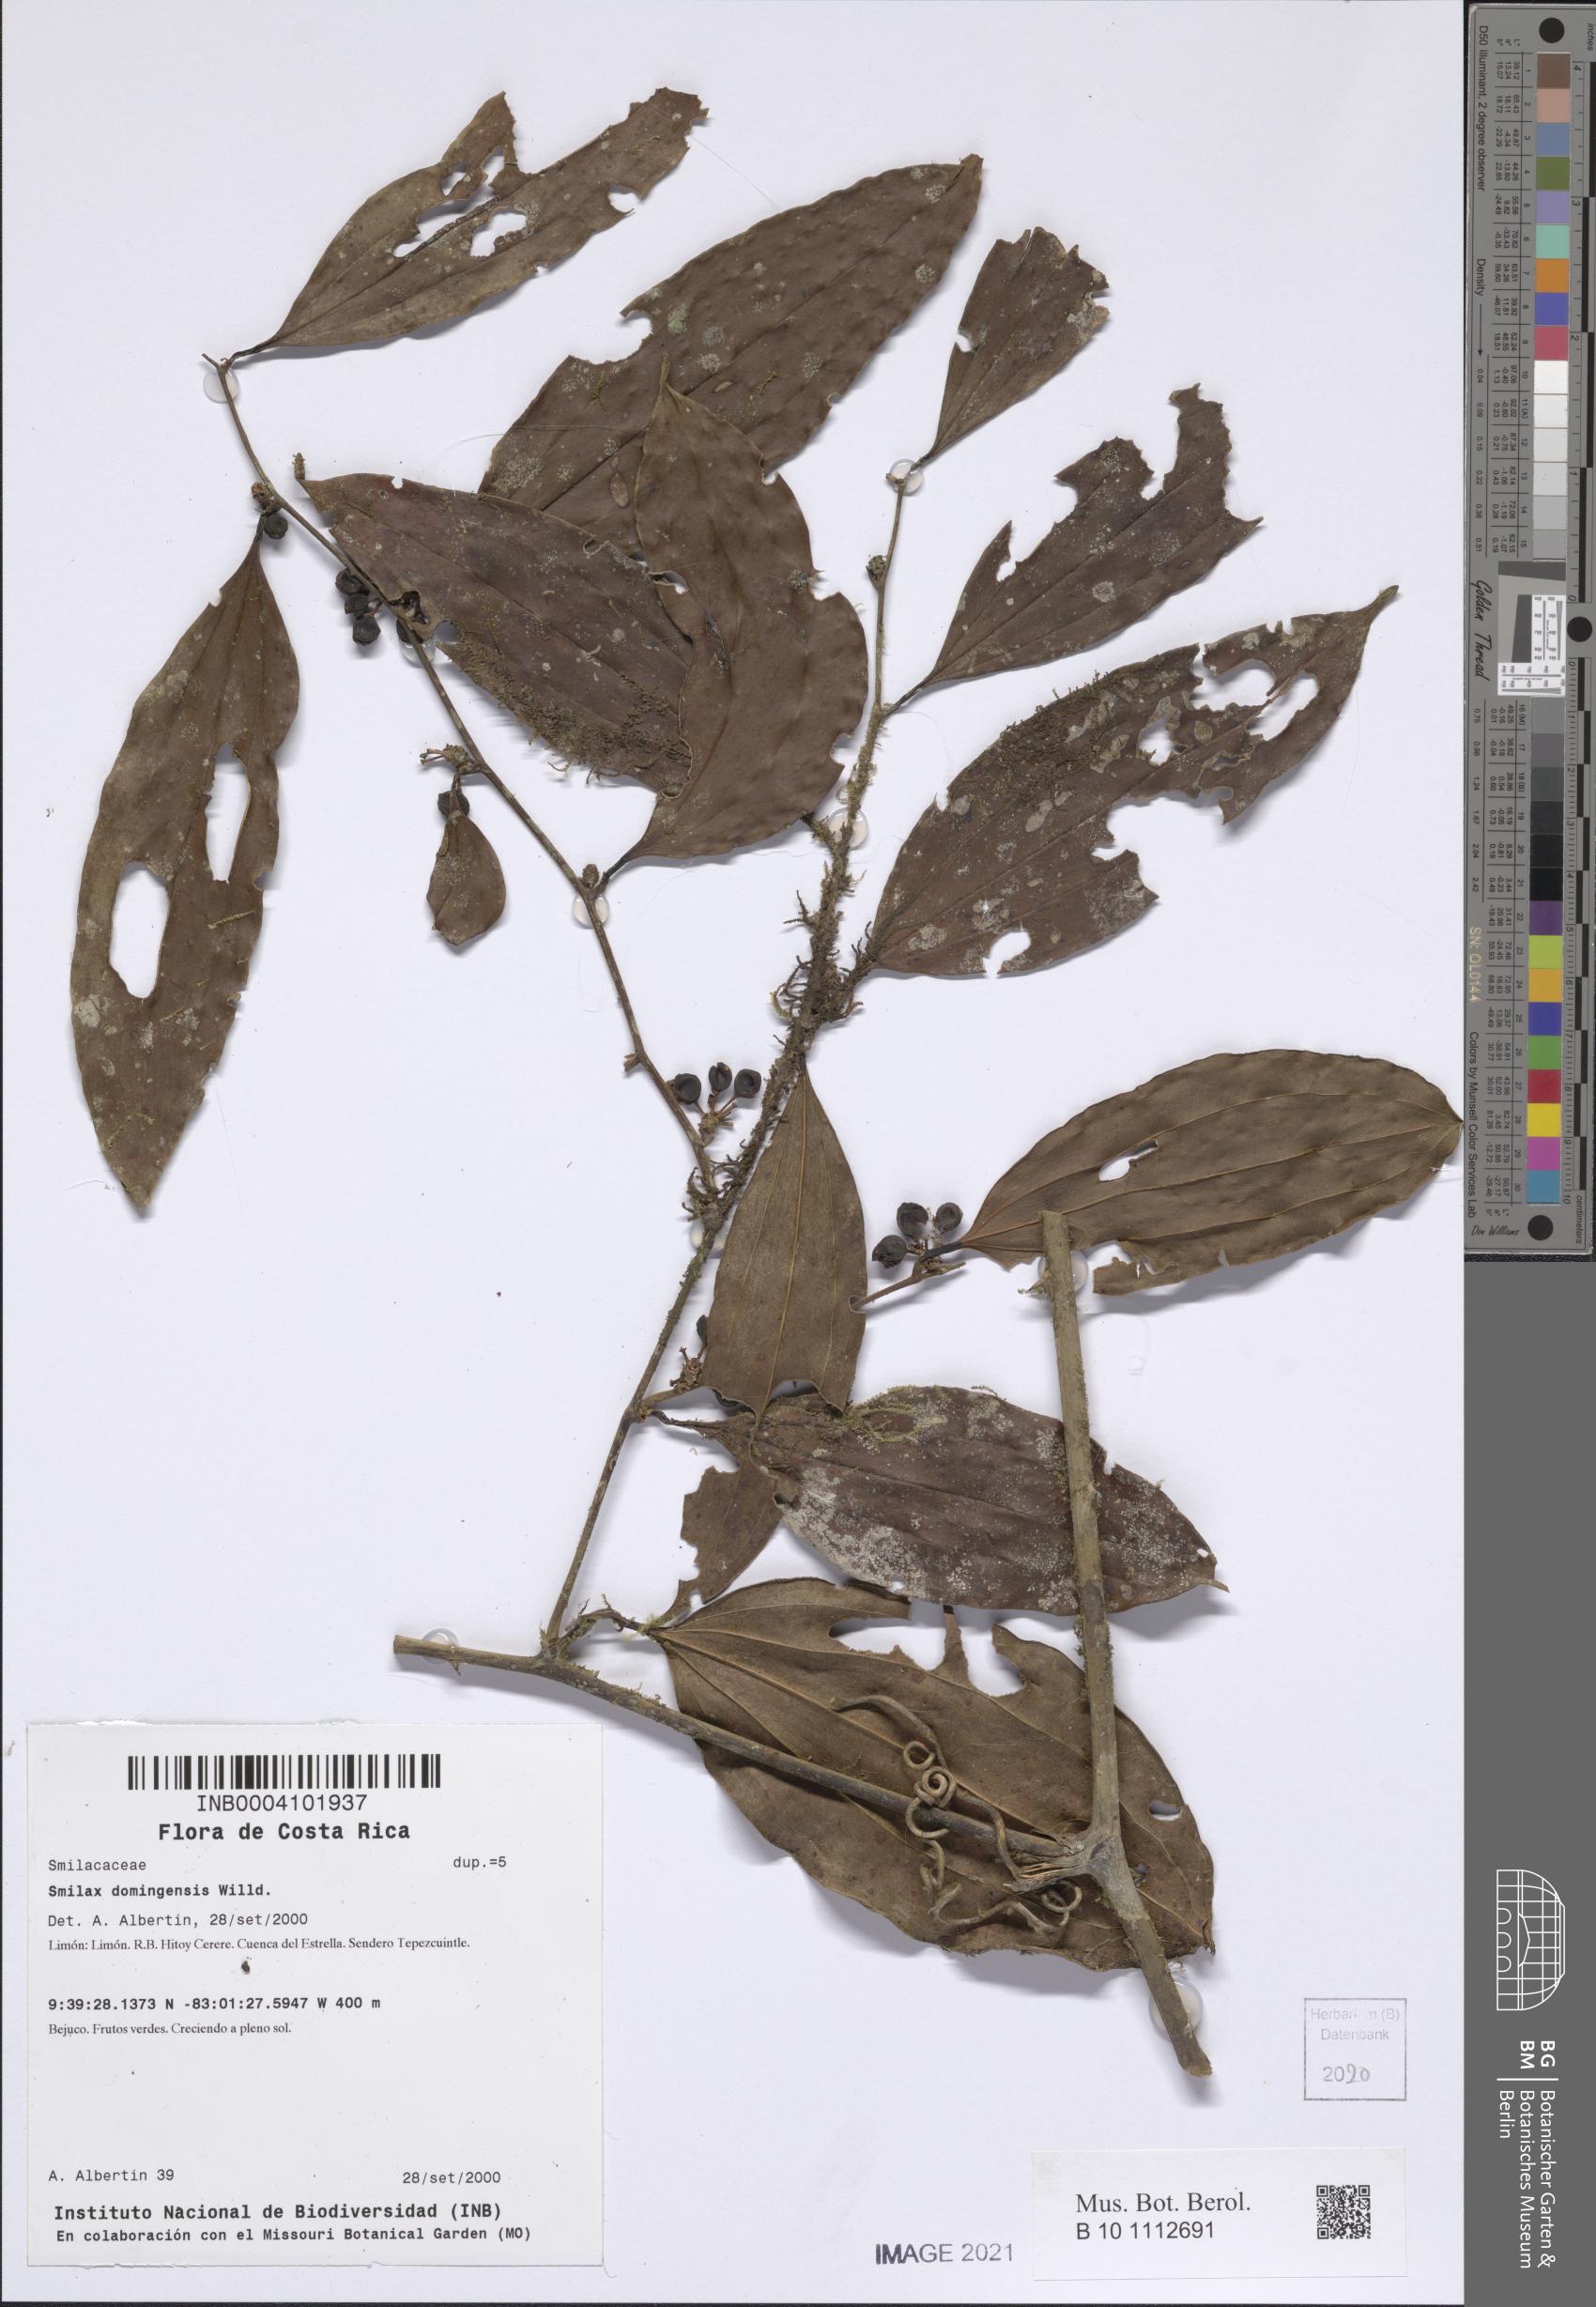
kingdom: Plantae
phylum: Tracheophyta
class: Liliopsida
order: Liliales
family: Smilacaceae
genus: Smilax
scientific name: Smilax domingensis
